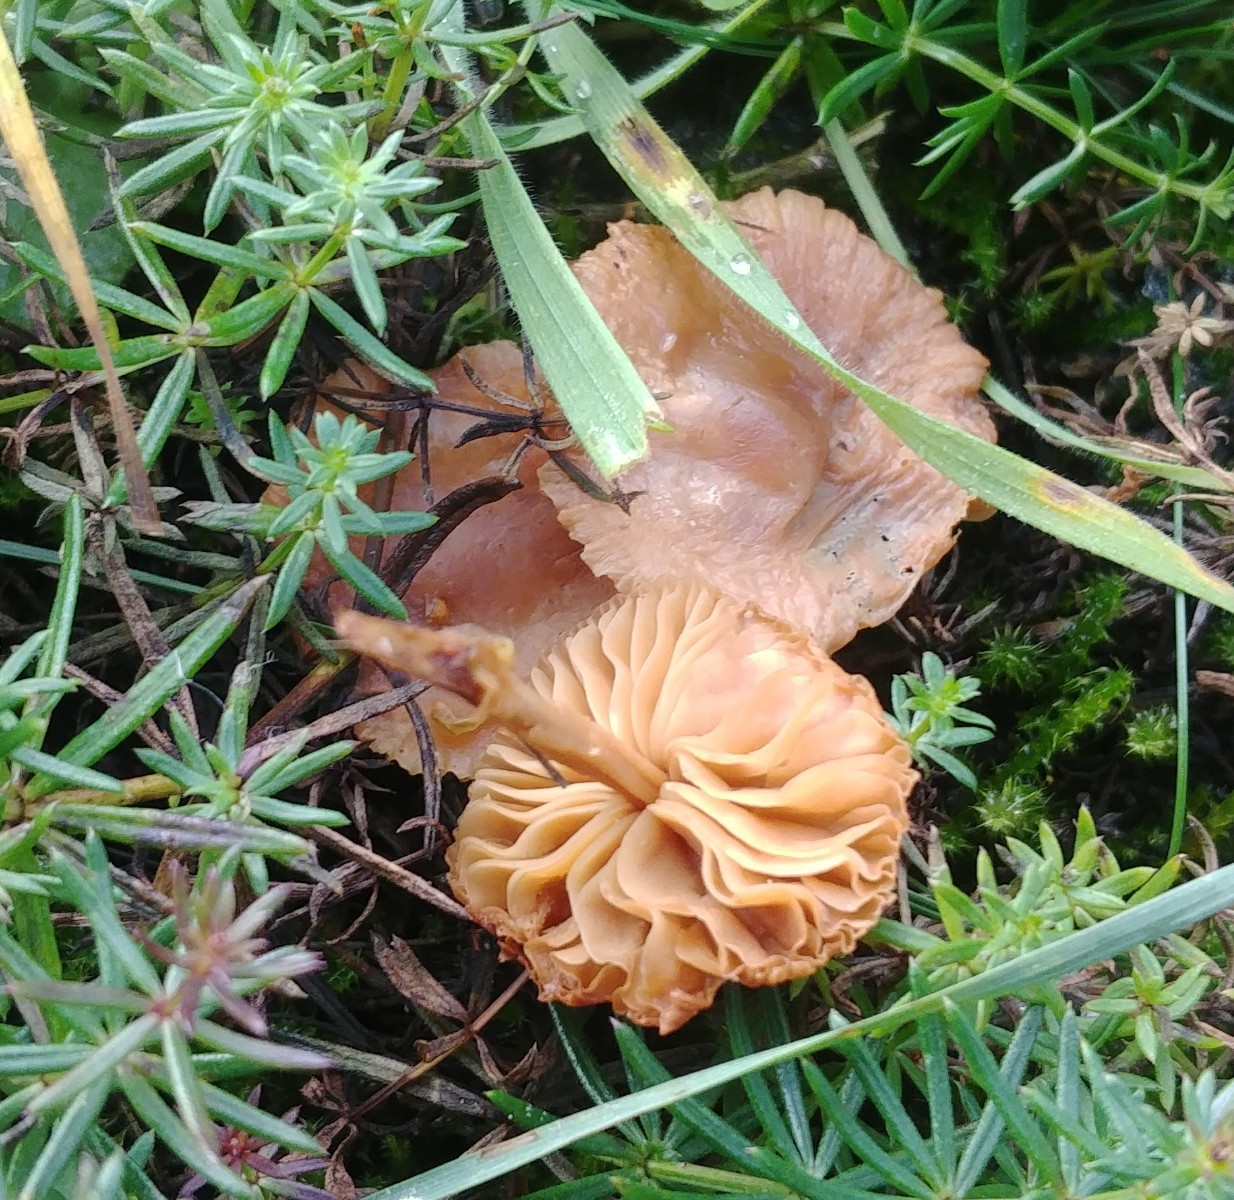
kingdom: Fungi
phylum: Basidiomycota
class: Agaricomycetes
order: Agaricales
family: Marasmiaceae
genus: Marasmius
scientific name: Marasmius oreades
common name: elledans-bruskhat
